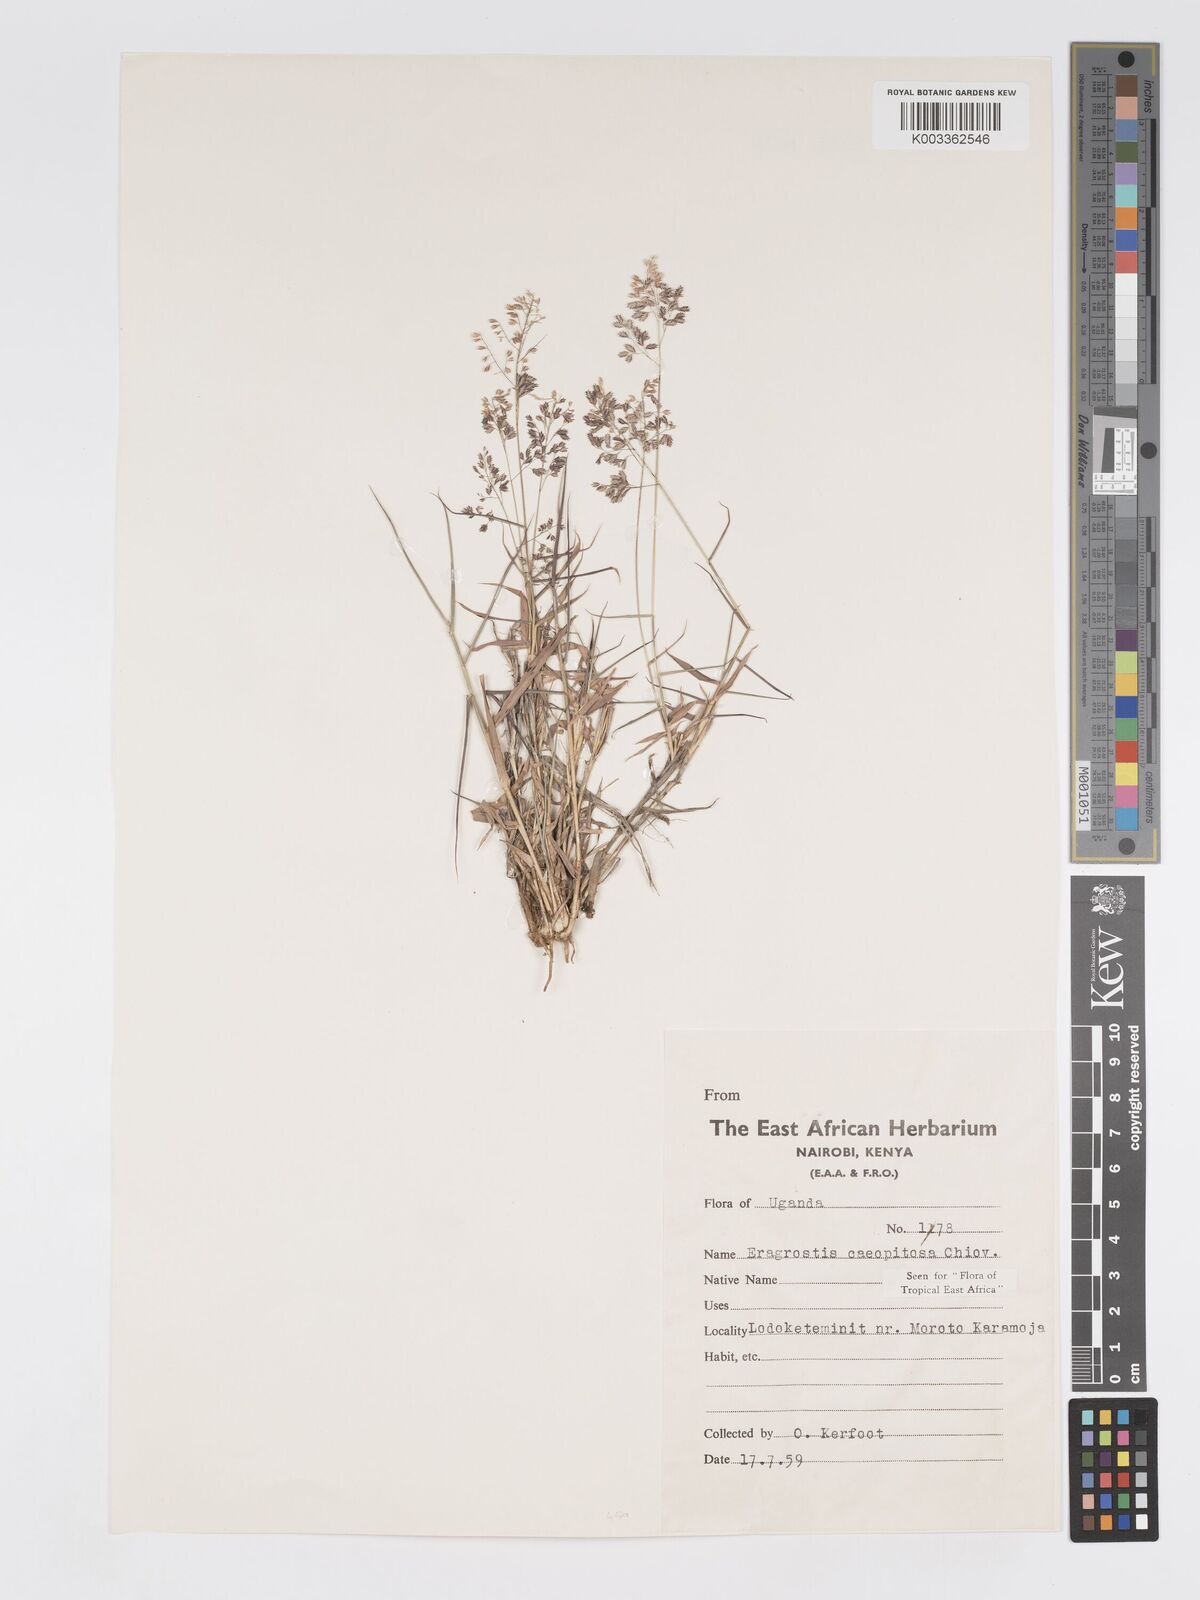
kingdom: Plantae
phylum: Tracheophyta
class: Liliopsida
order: Poales
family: Poaceae
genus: Eragrostis
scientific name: Eragrostis caespitosa
